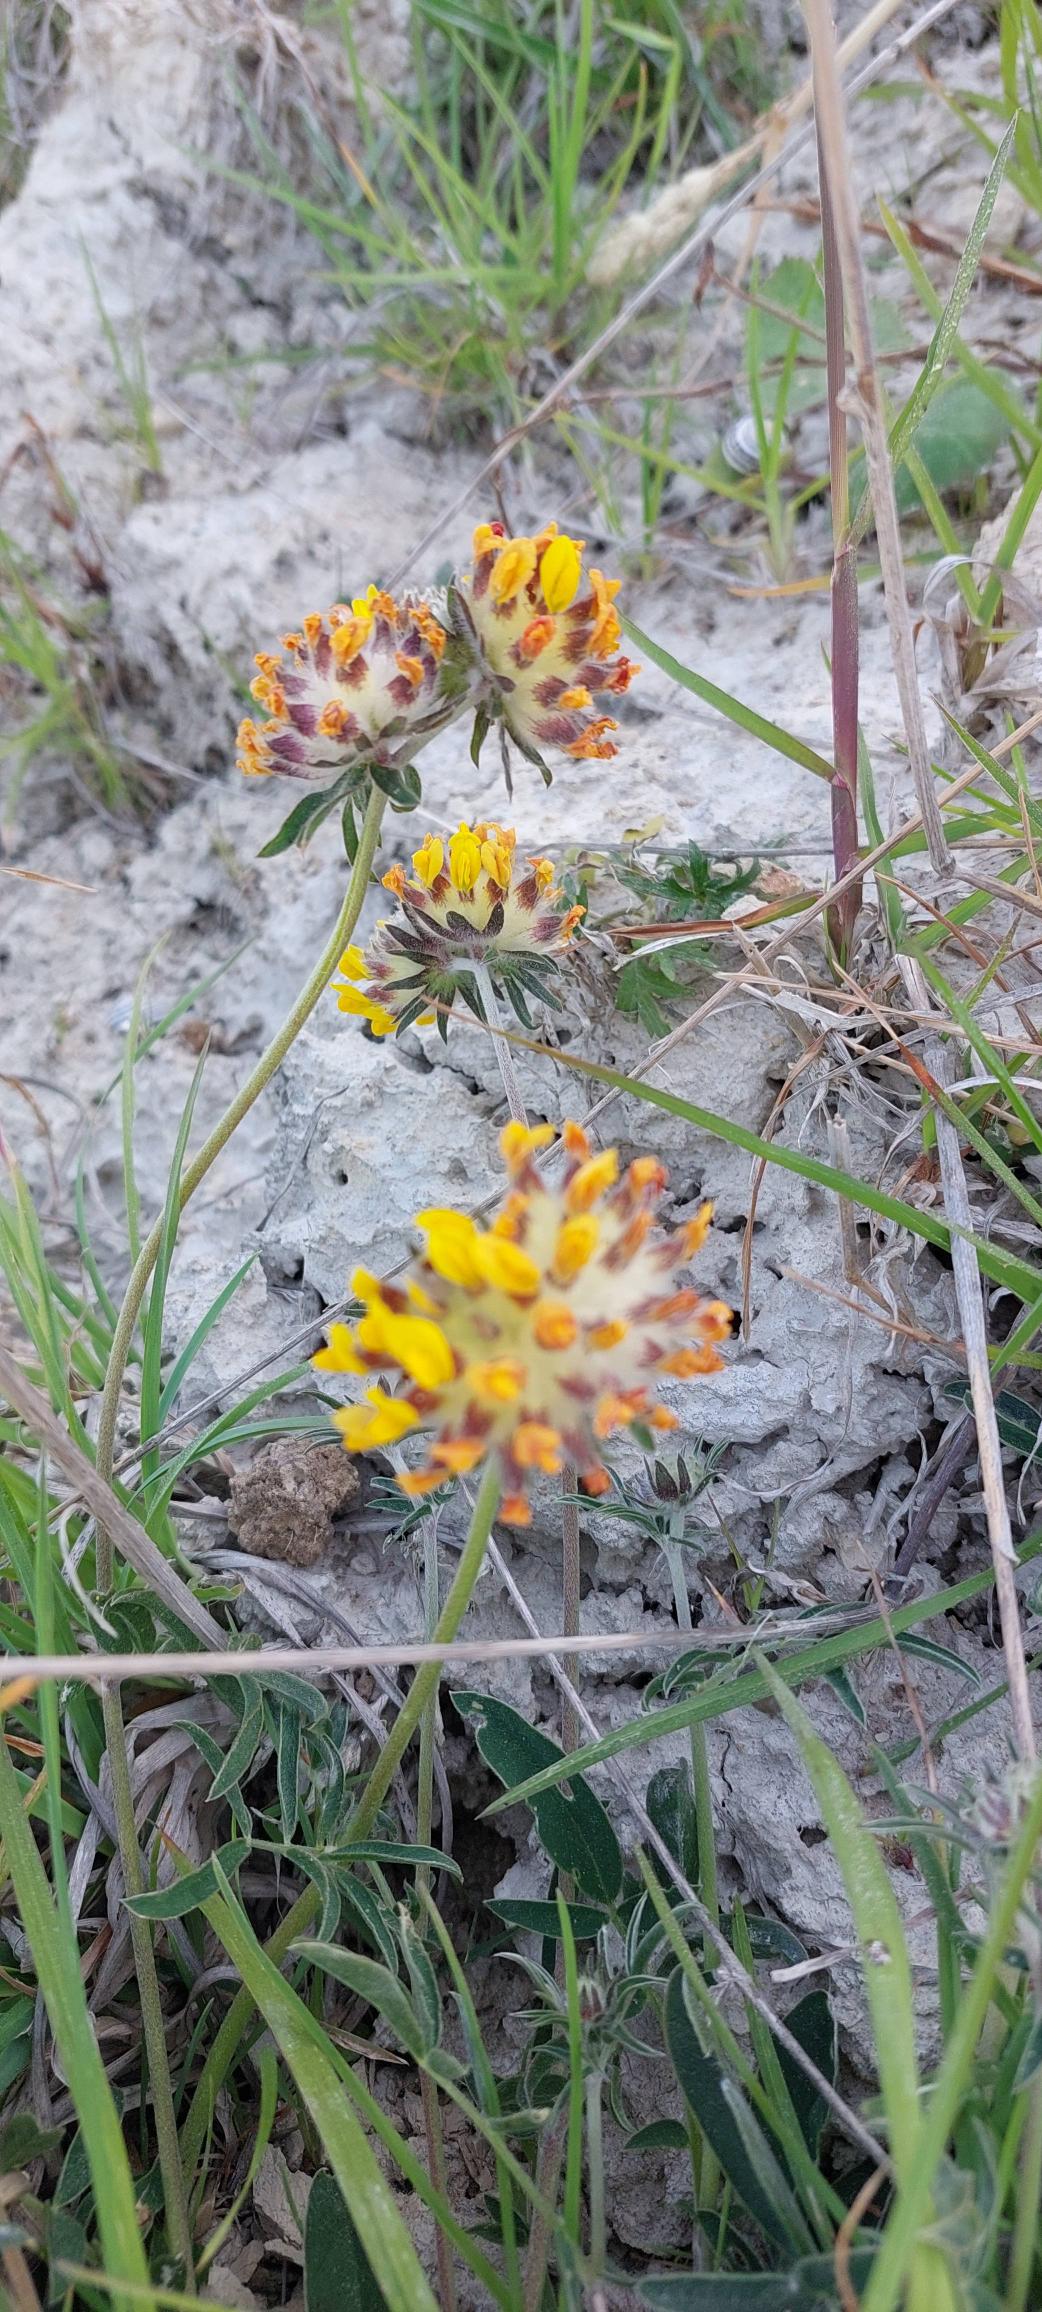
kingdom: Plantae
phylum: Tracheophyta
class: Magnoliopsida
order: Fabales
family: Fabaceae
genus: Anthyllis
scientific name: Anthyllis vulneraria
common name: Rundbælg
